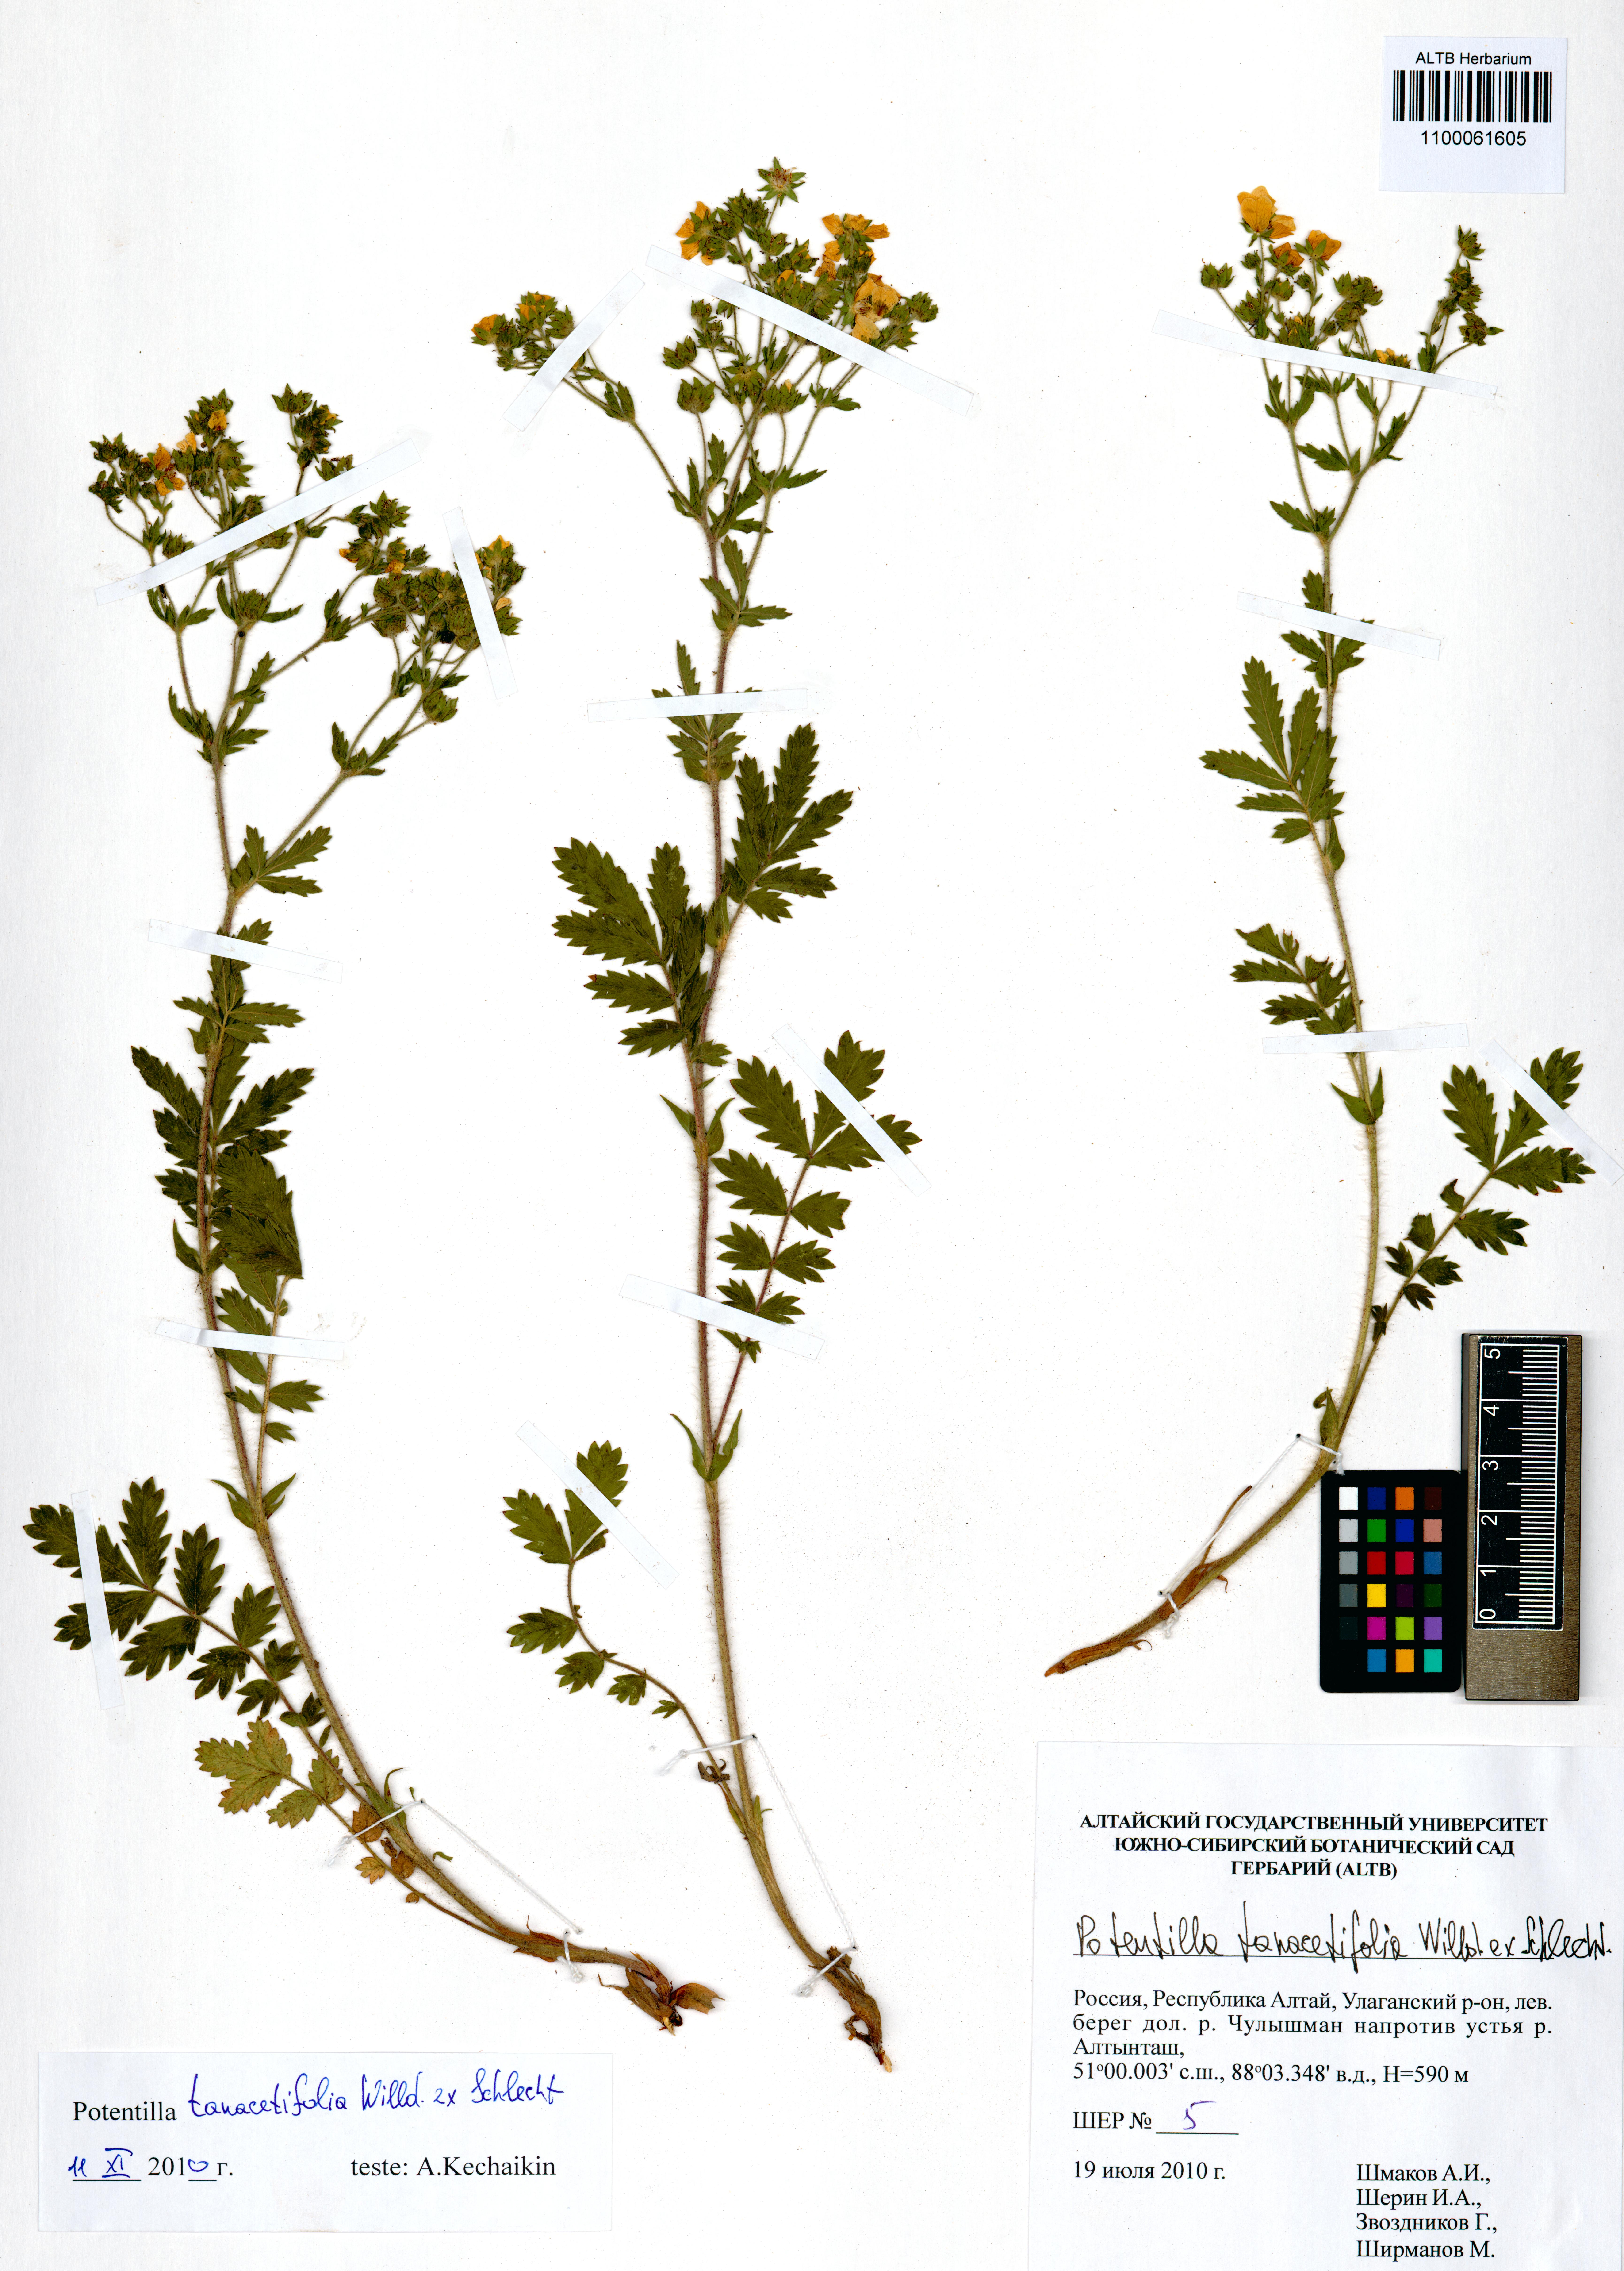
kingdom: Plantae
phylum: Tracheophyta
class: Magnoliopsida
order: Rosales
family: Rosaceae
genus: Potentilla
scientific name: Potentilla tanacetifolia
